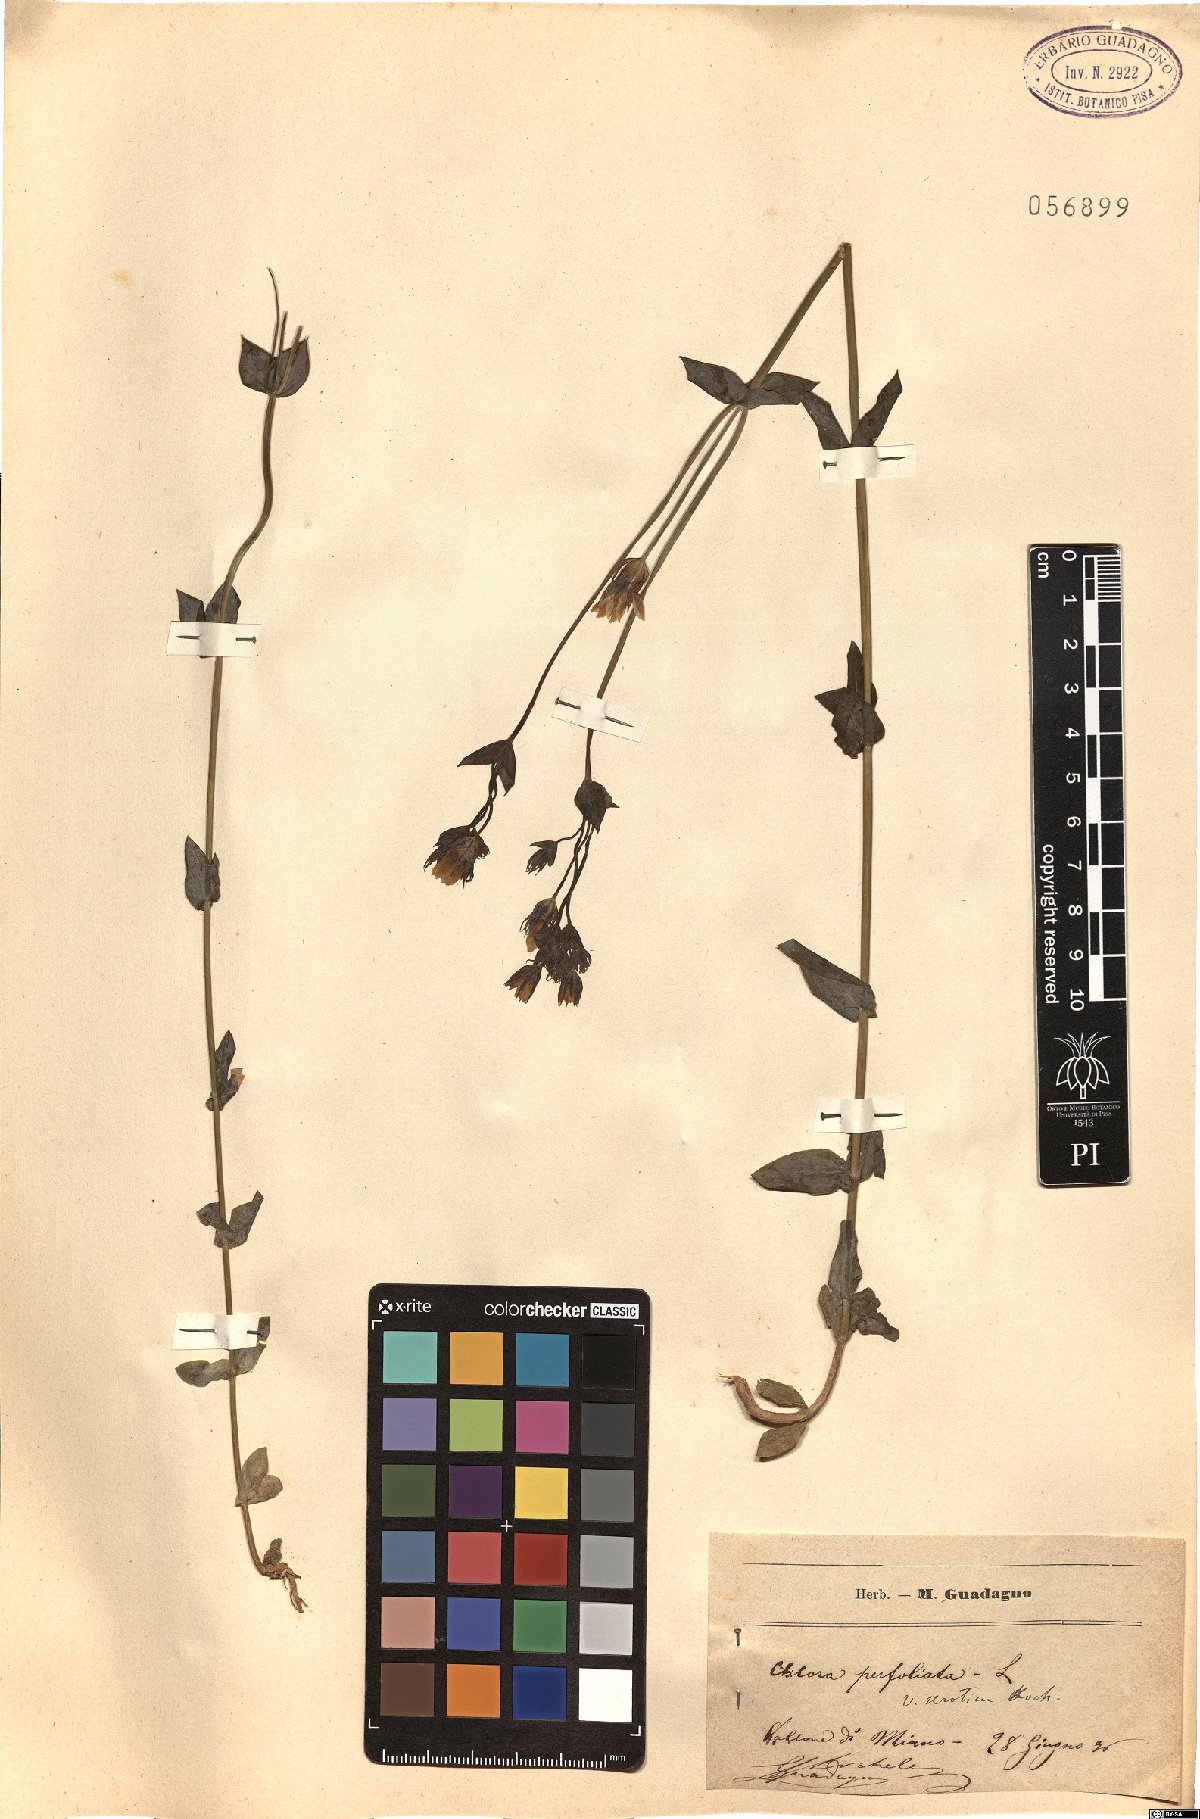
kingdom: Plantae
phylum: Tracheophyta
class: Magnoliopsida
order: Gentianales
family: Gentianaceae
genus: Blackstonia
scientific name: Blackstonia perfoliata
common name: Yellow-wort
